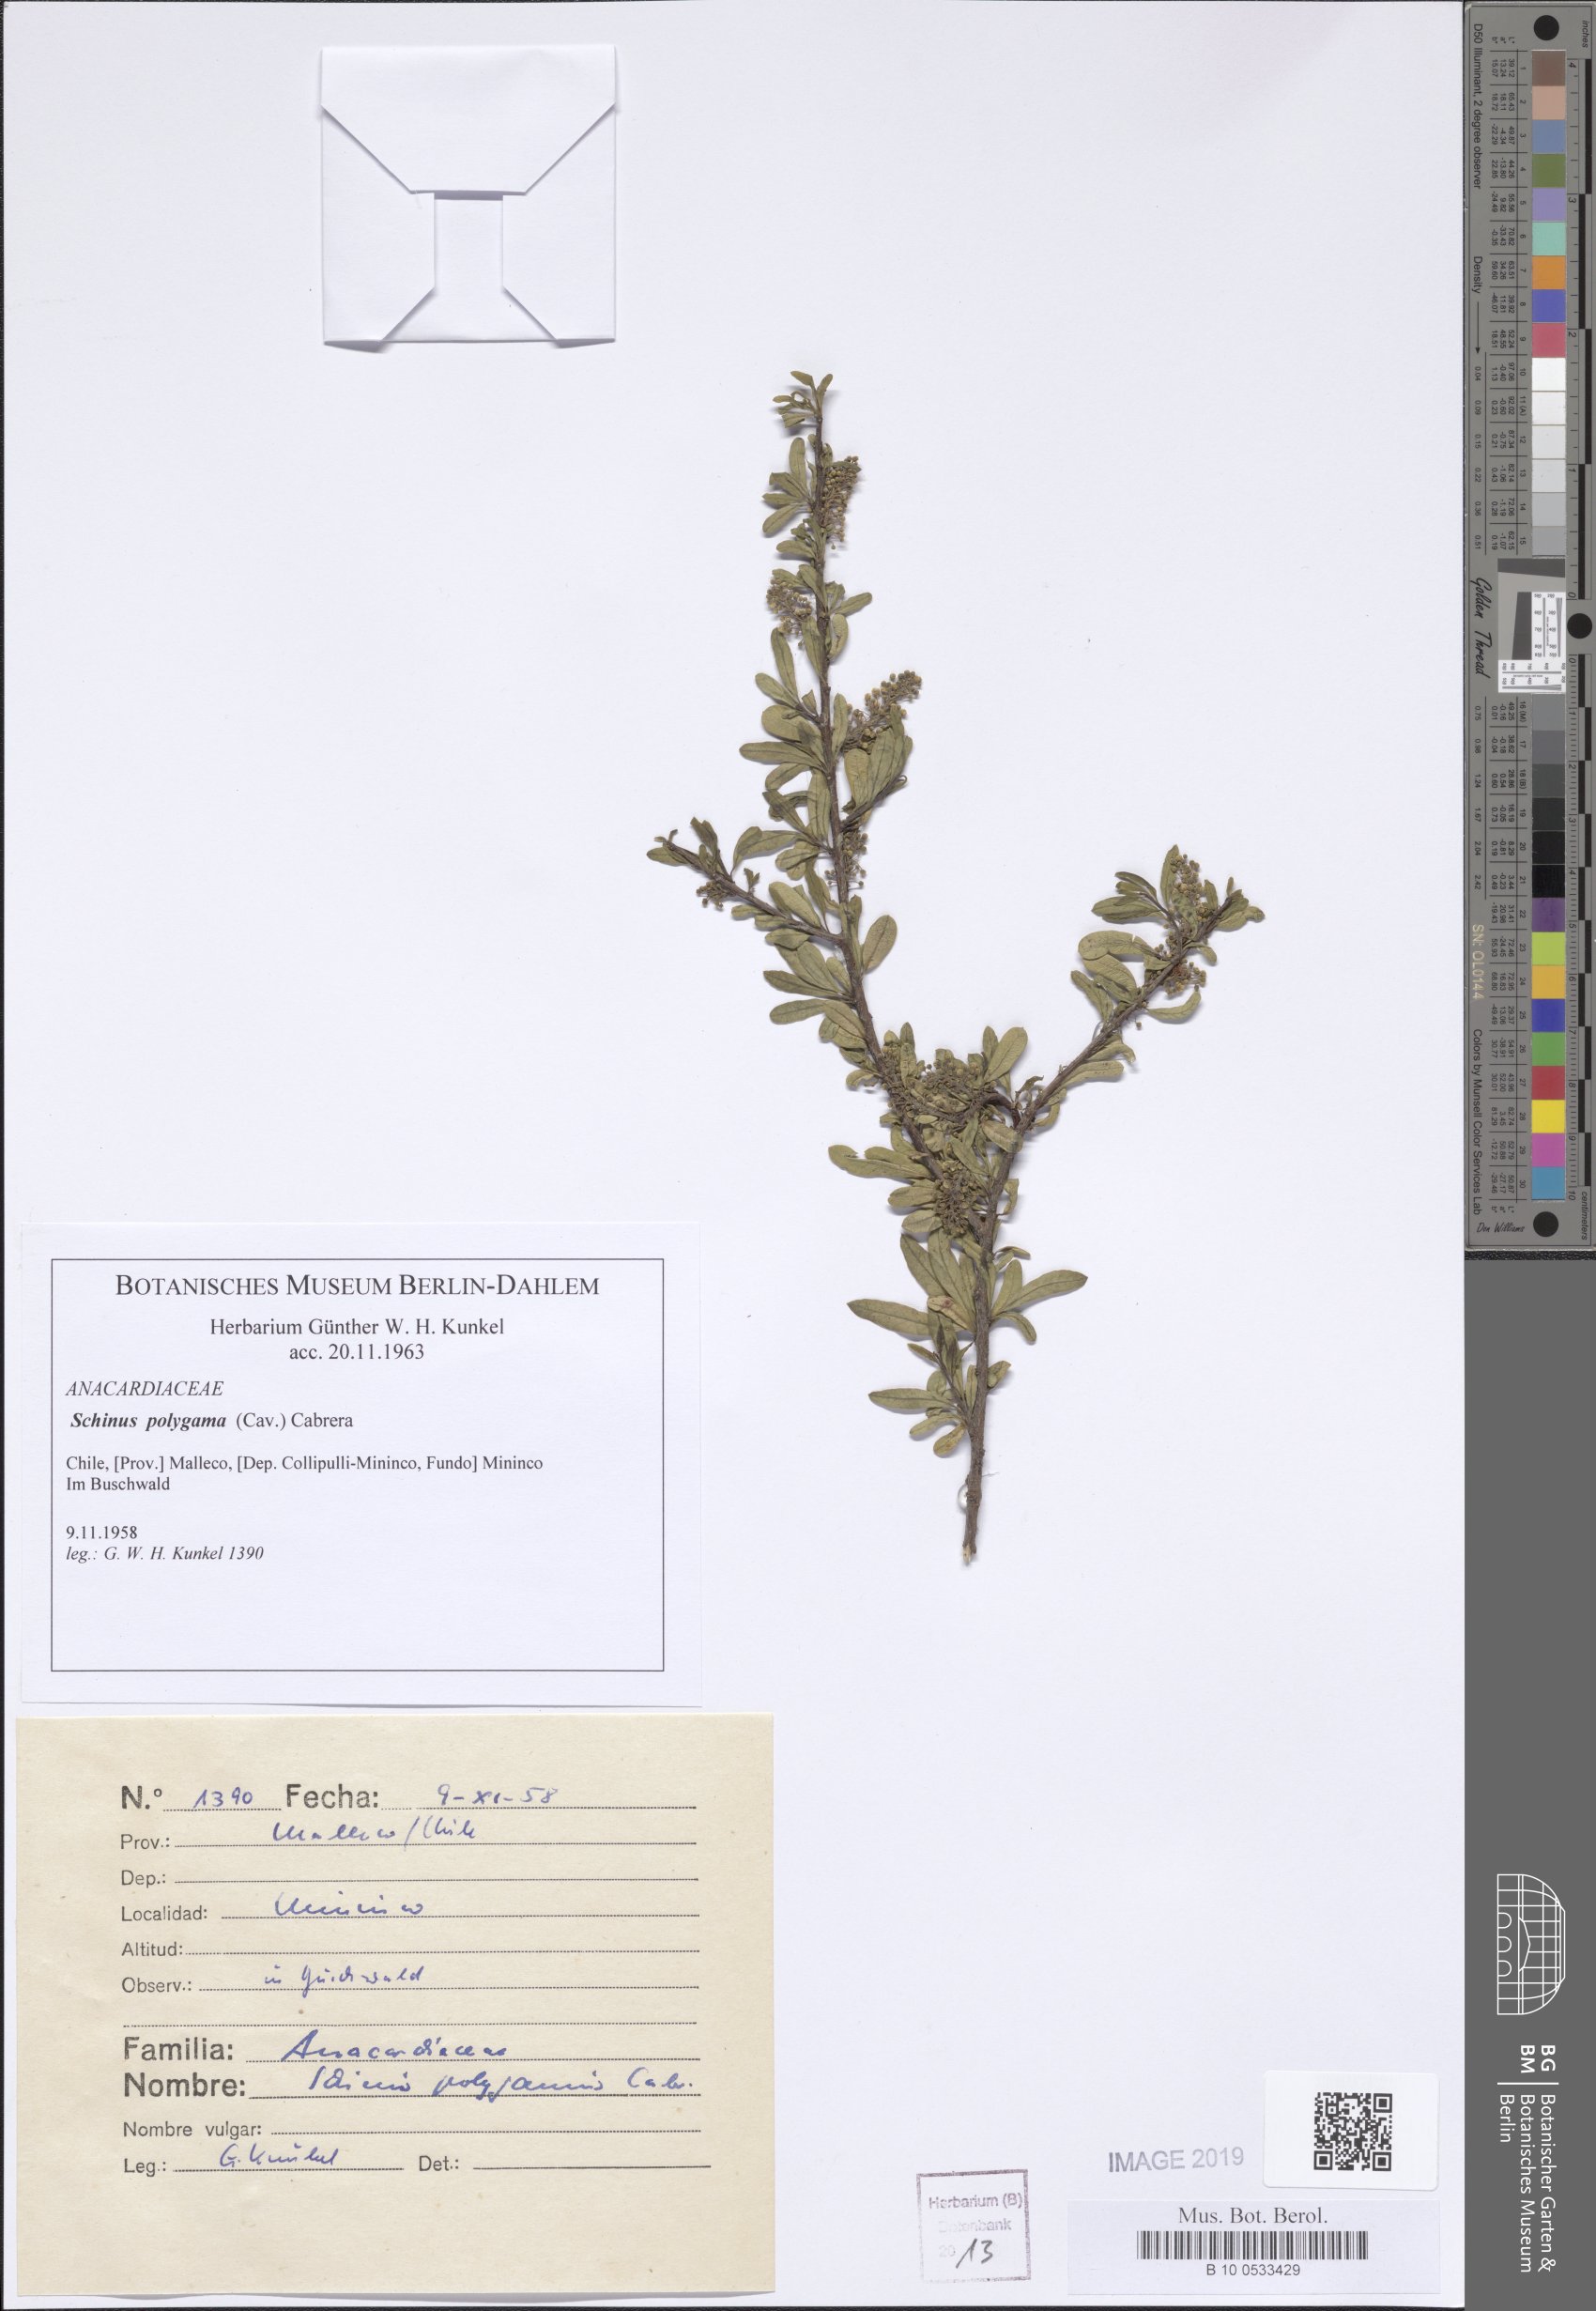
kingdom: Plantae
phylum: Tracheophyta
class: Magnoliopsida
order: Sapindales
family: Anacardiaceae
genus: Schinus
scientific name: Schinus polygama
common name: Hardee peppertree
